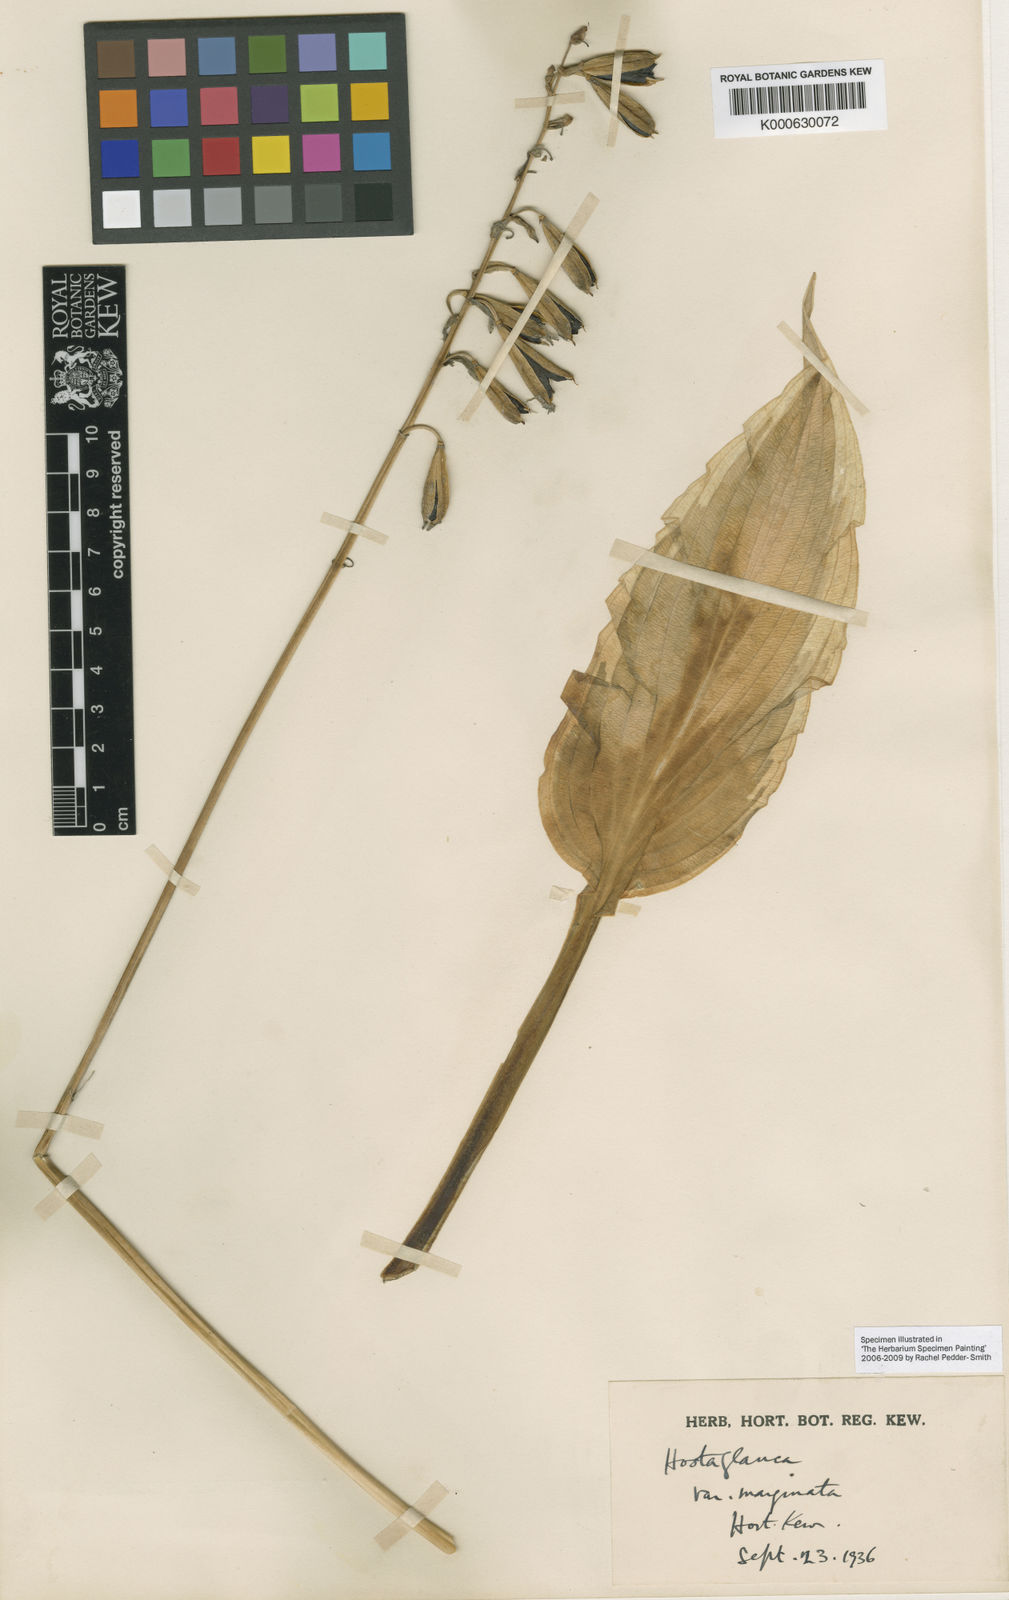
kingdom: Plantae
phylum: Tracheophyta
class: Liliopsida
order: Asparagales
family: Asparagaceae
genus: Hosta
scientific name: Hosta sieboldiana
